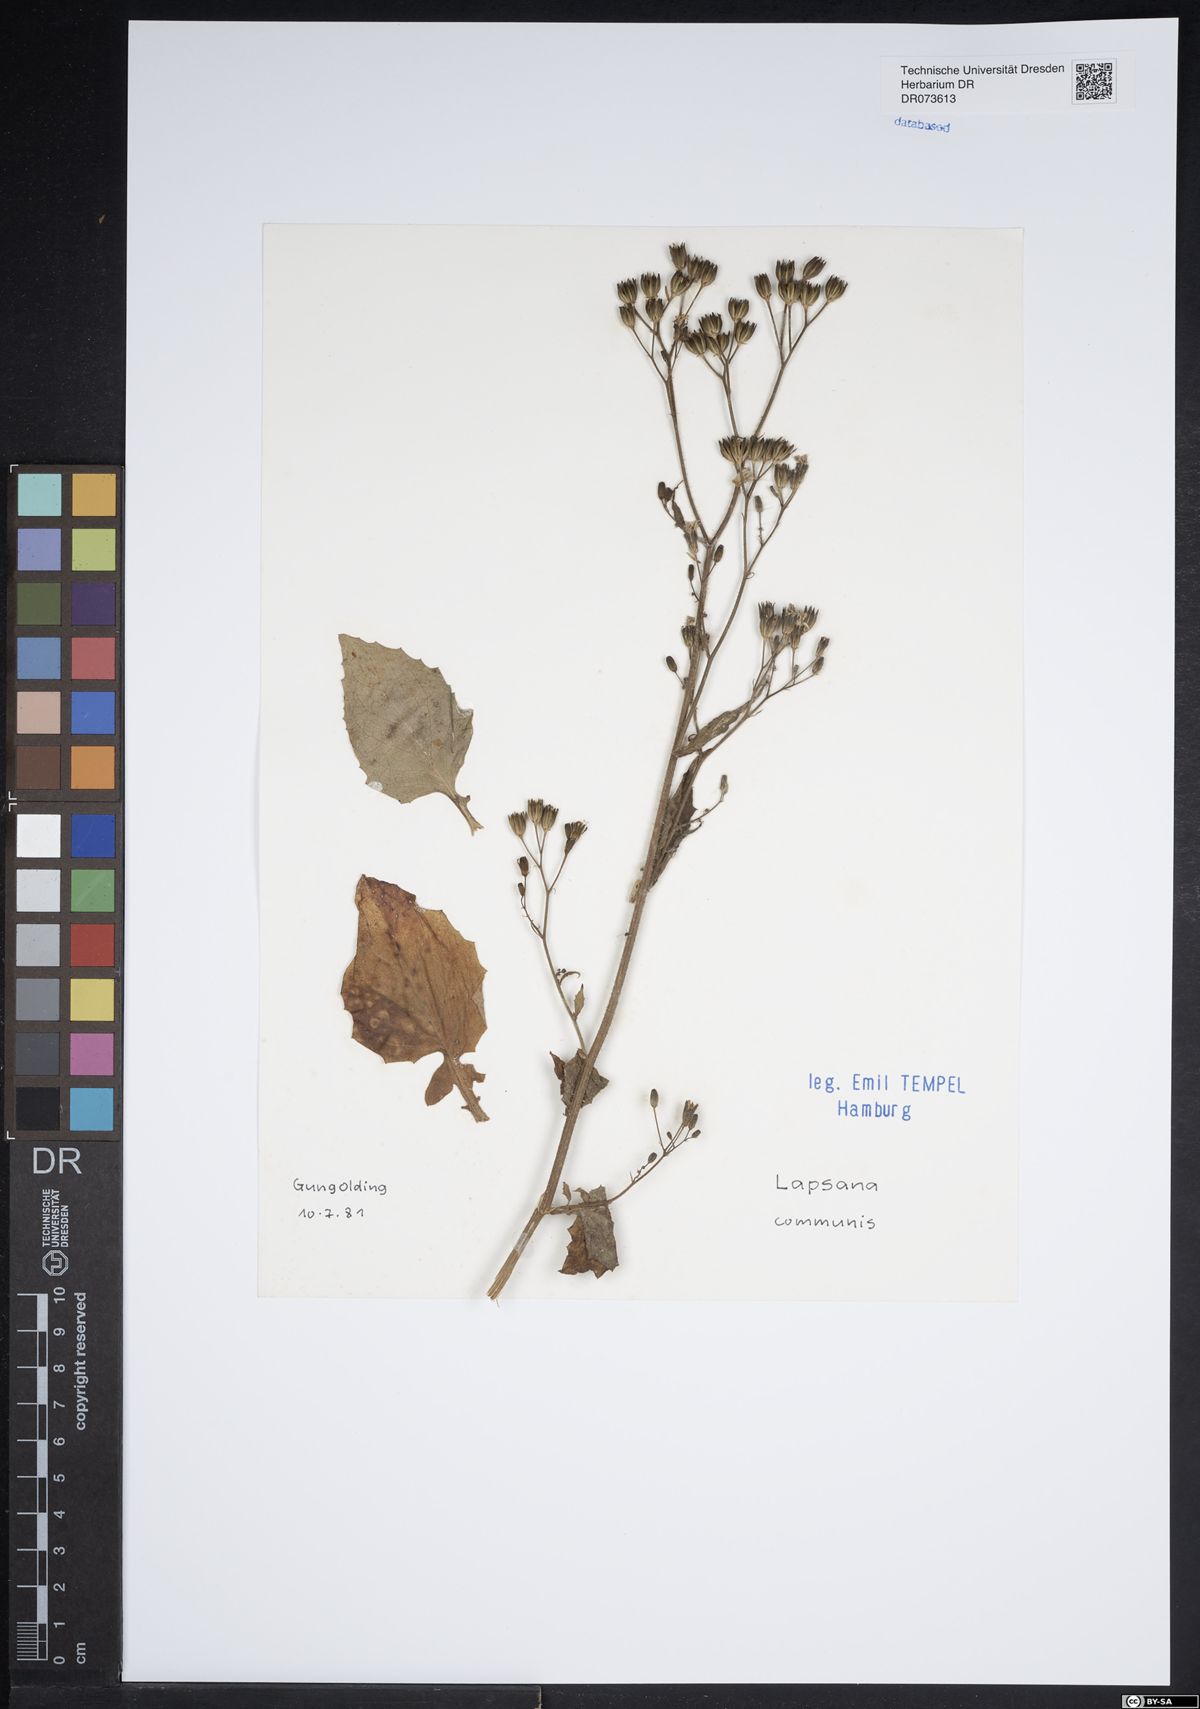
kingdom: Plantae
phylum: Tracheophyta
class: Magnoliopsida
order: Asterales
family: Asteraceae
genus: Lapsana
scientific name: Lapsana communis
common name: Nipplewort
